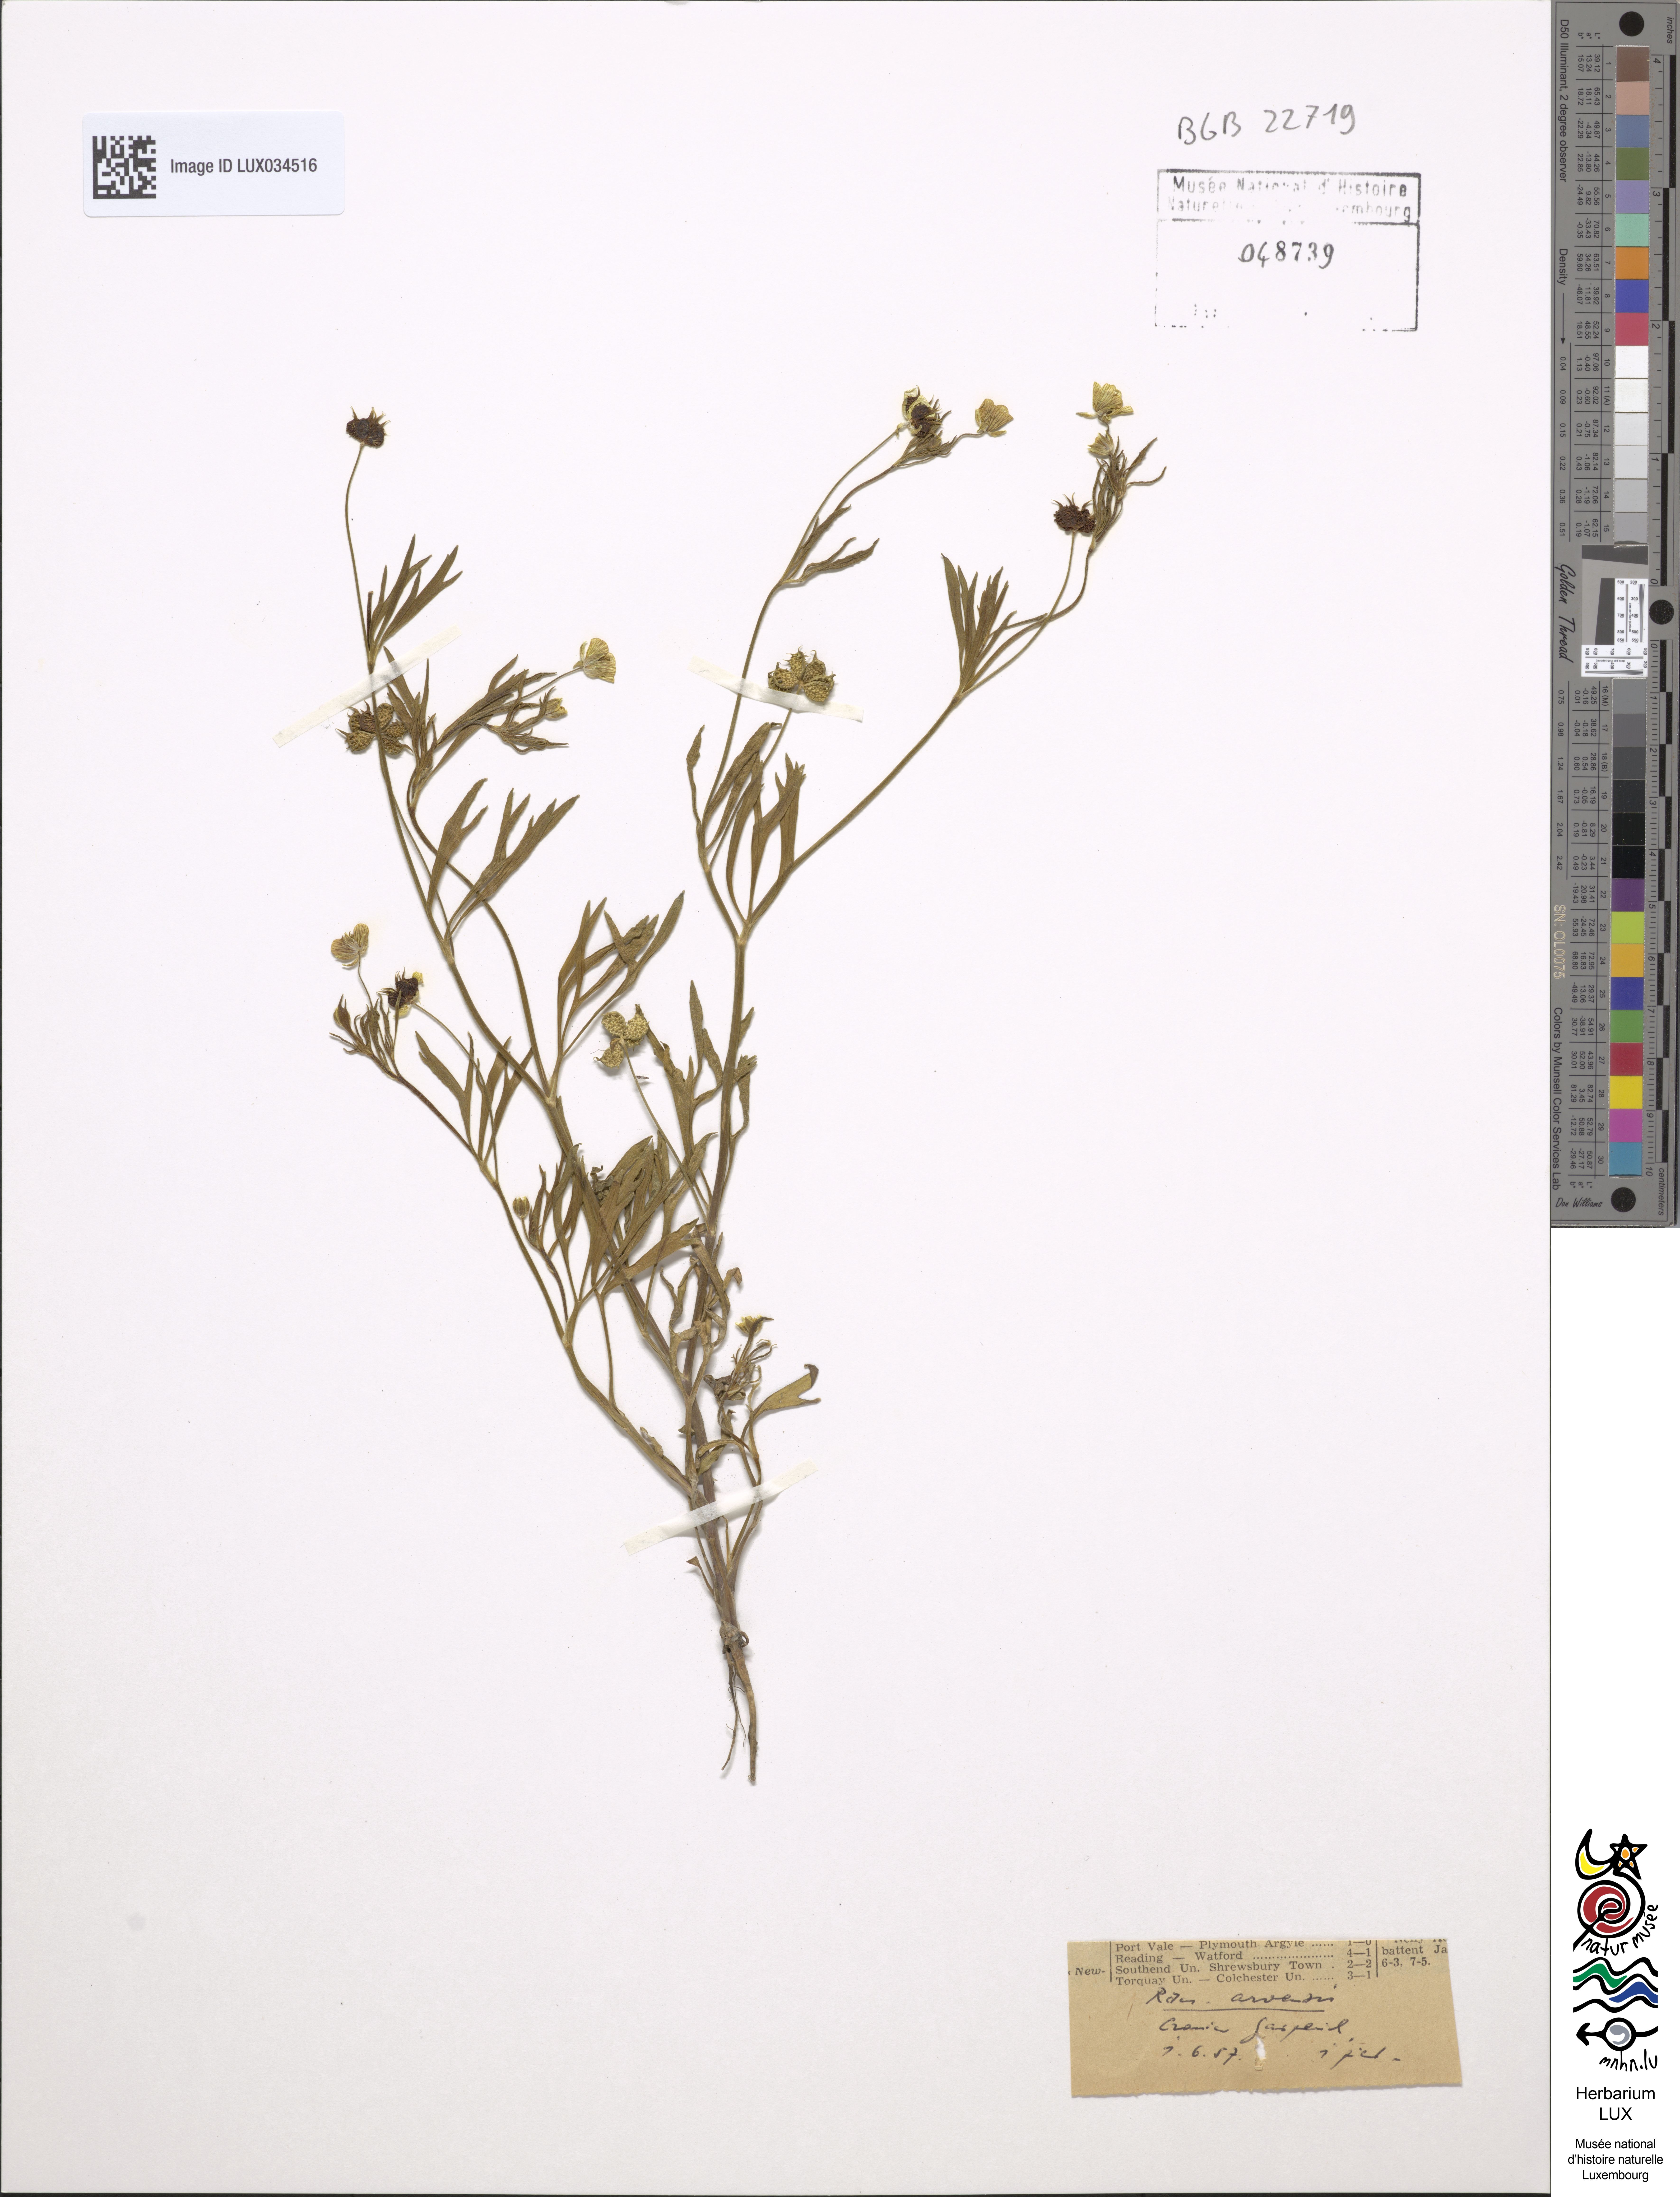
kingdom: Plantae
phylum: Tracheophyta
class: Magnoliopsida
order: Ranunculales
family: Ranunculaceae
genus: Ranunculus
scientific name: Ranunculus arvensis
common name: Corn buttercup
